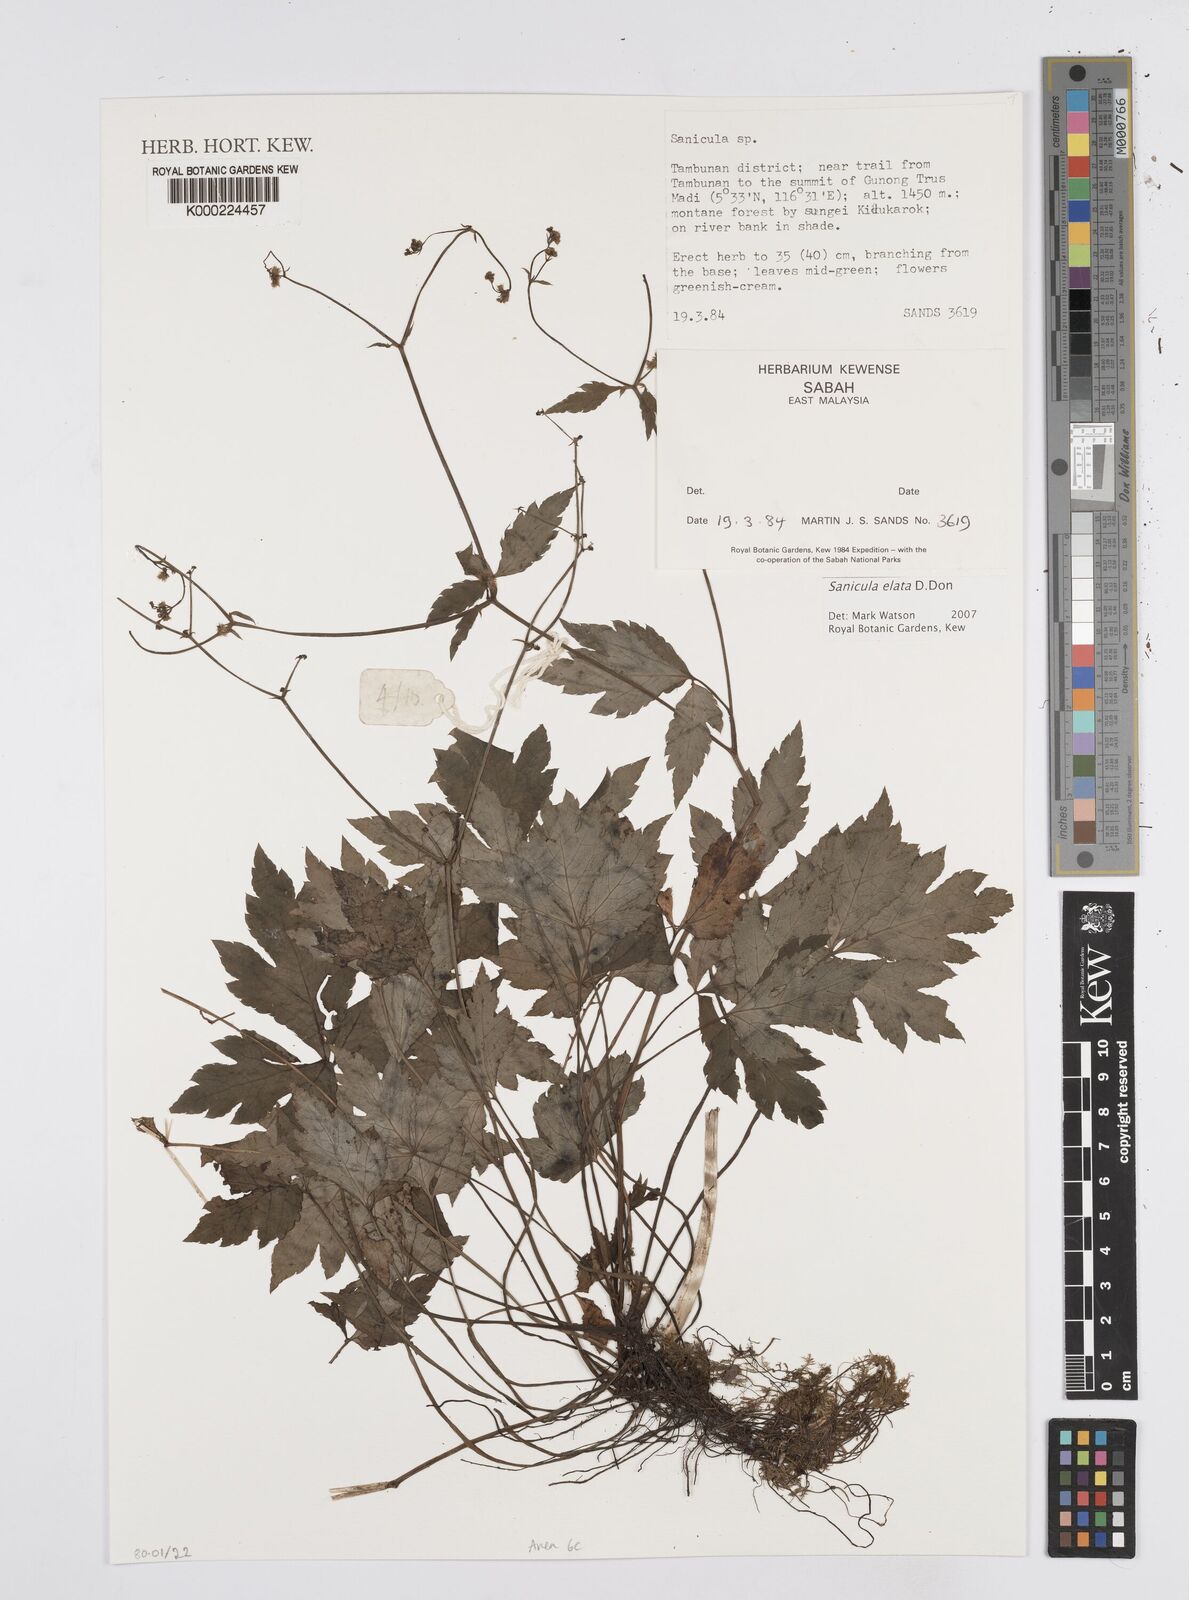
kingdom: Plantae
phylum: Tracheophyta
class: Magnoliopsida
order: Apiales
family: Apiaceae
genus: Sanicula
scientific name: Sanicula elata
